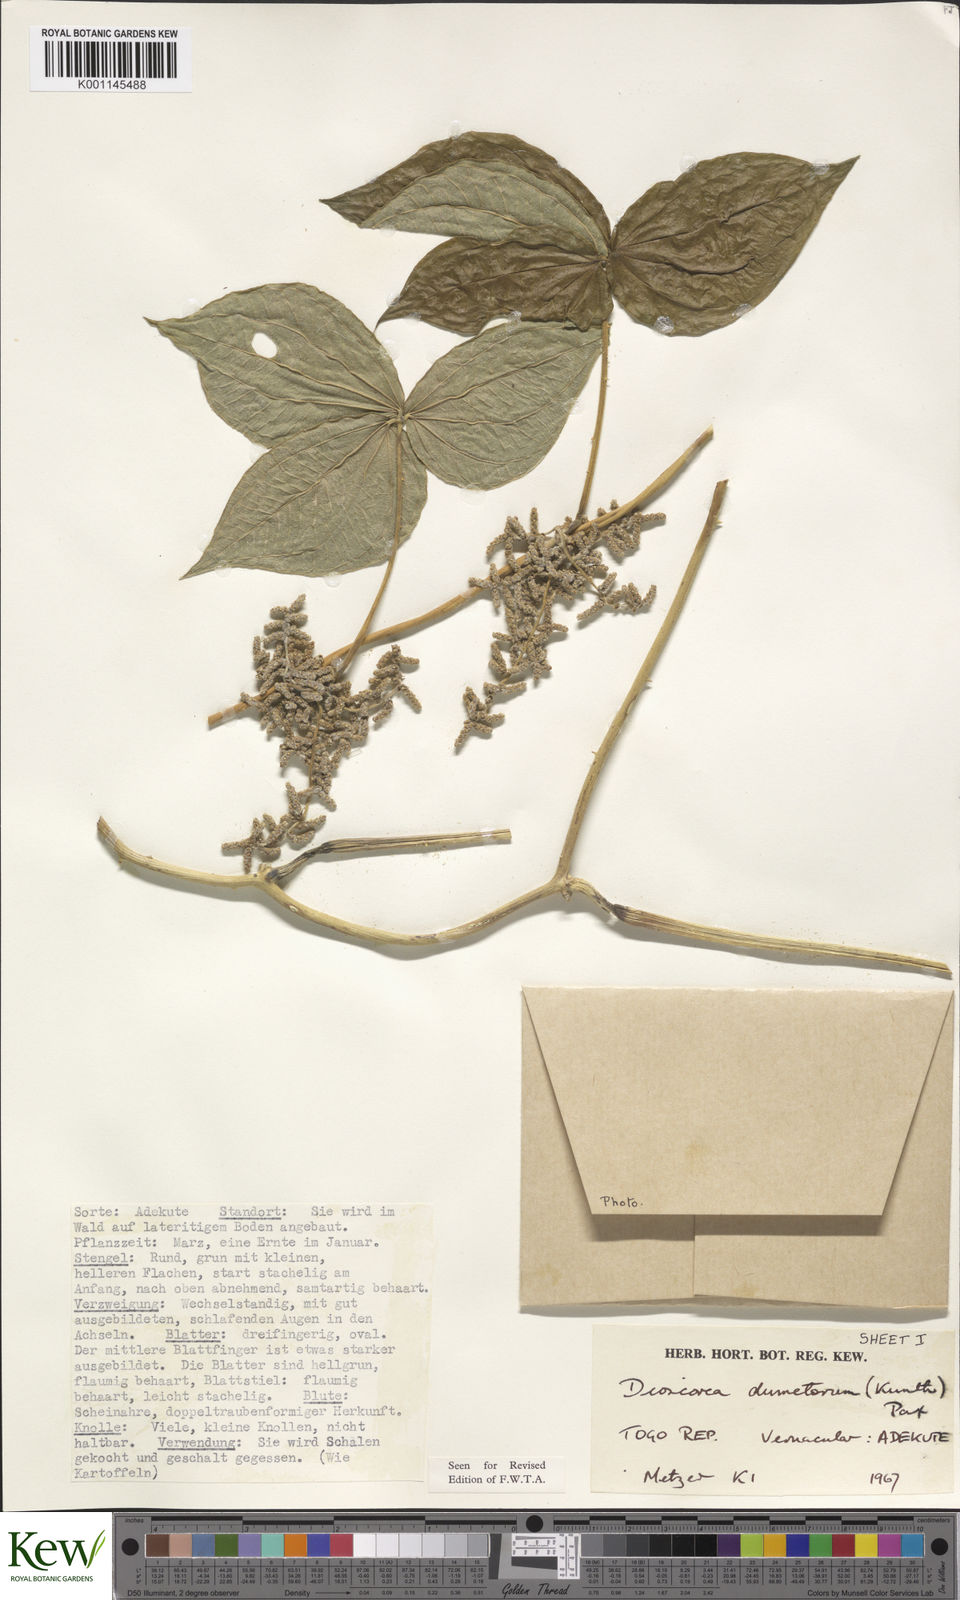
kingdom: Plantae
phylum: Tracheophyta
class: Liliopsida
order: Dioscoreales
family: Dioscoreaceae
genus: Dioscorea
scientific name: Dioscorea dumetorum
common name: African bitter yam
